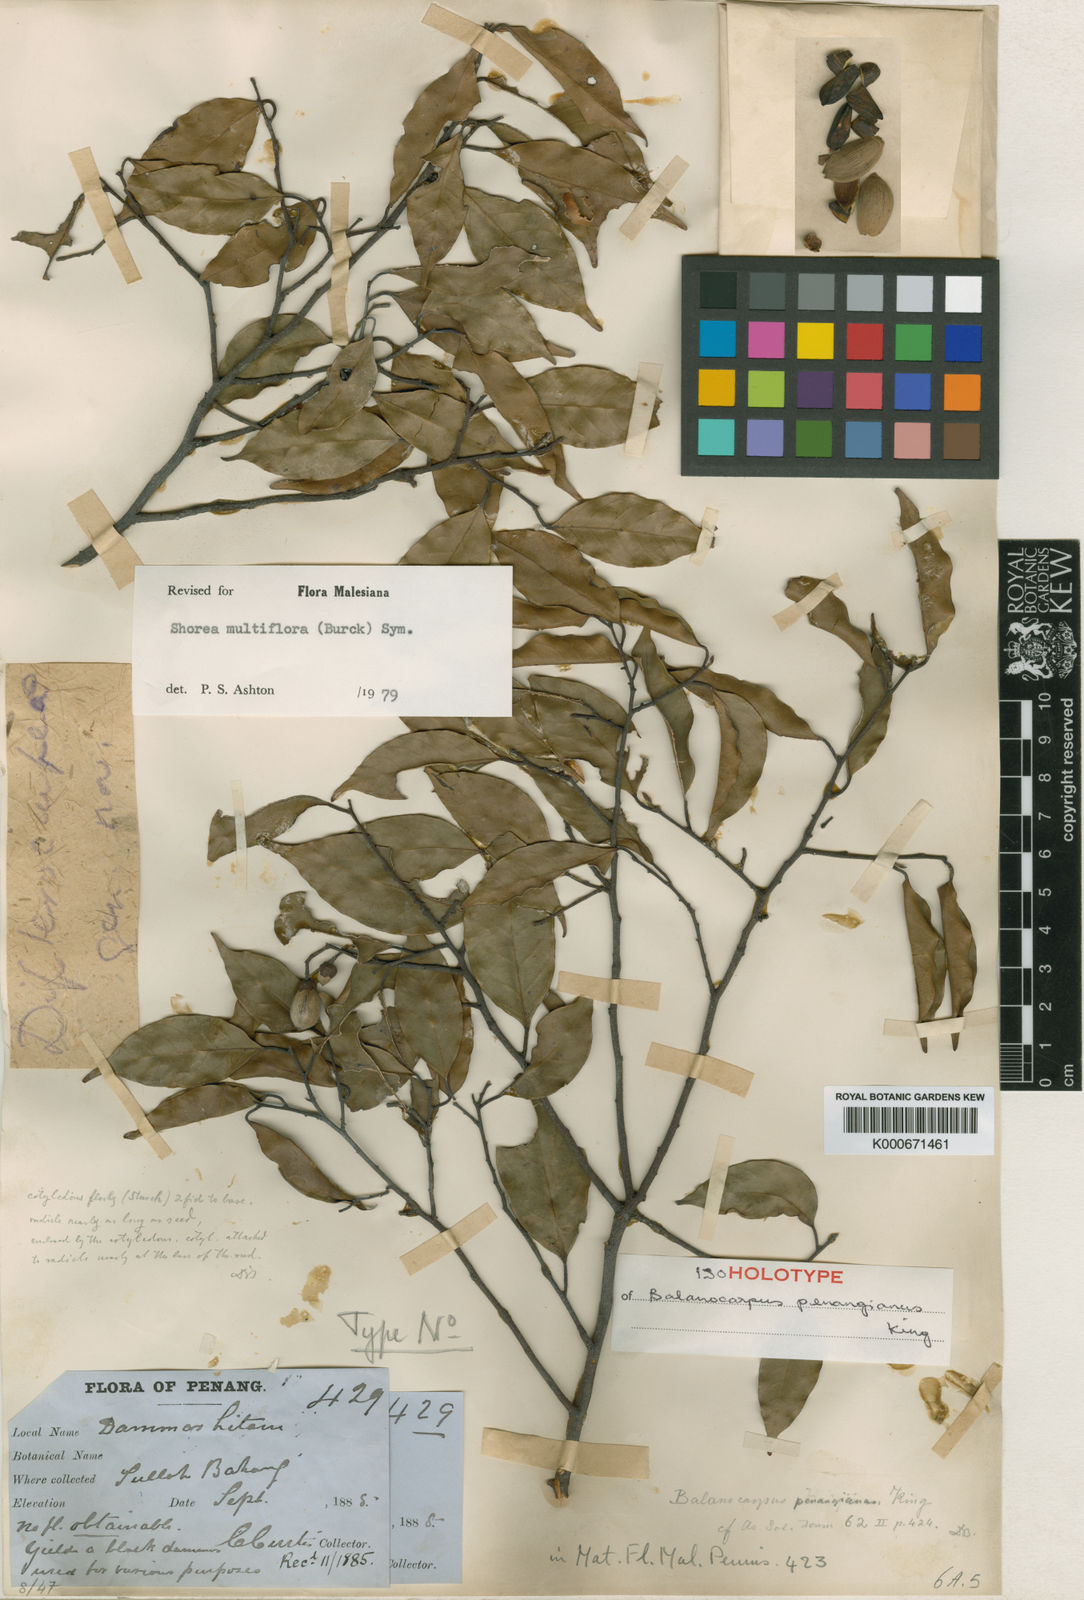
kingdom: Plantae
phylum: Tracheophyta
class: Magnoliopsida
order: Malvales
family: Dipterocarpaceae
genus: Shorea
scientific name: Shorea multiflora
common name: Yellow meranti
